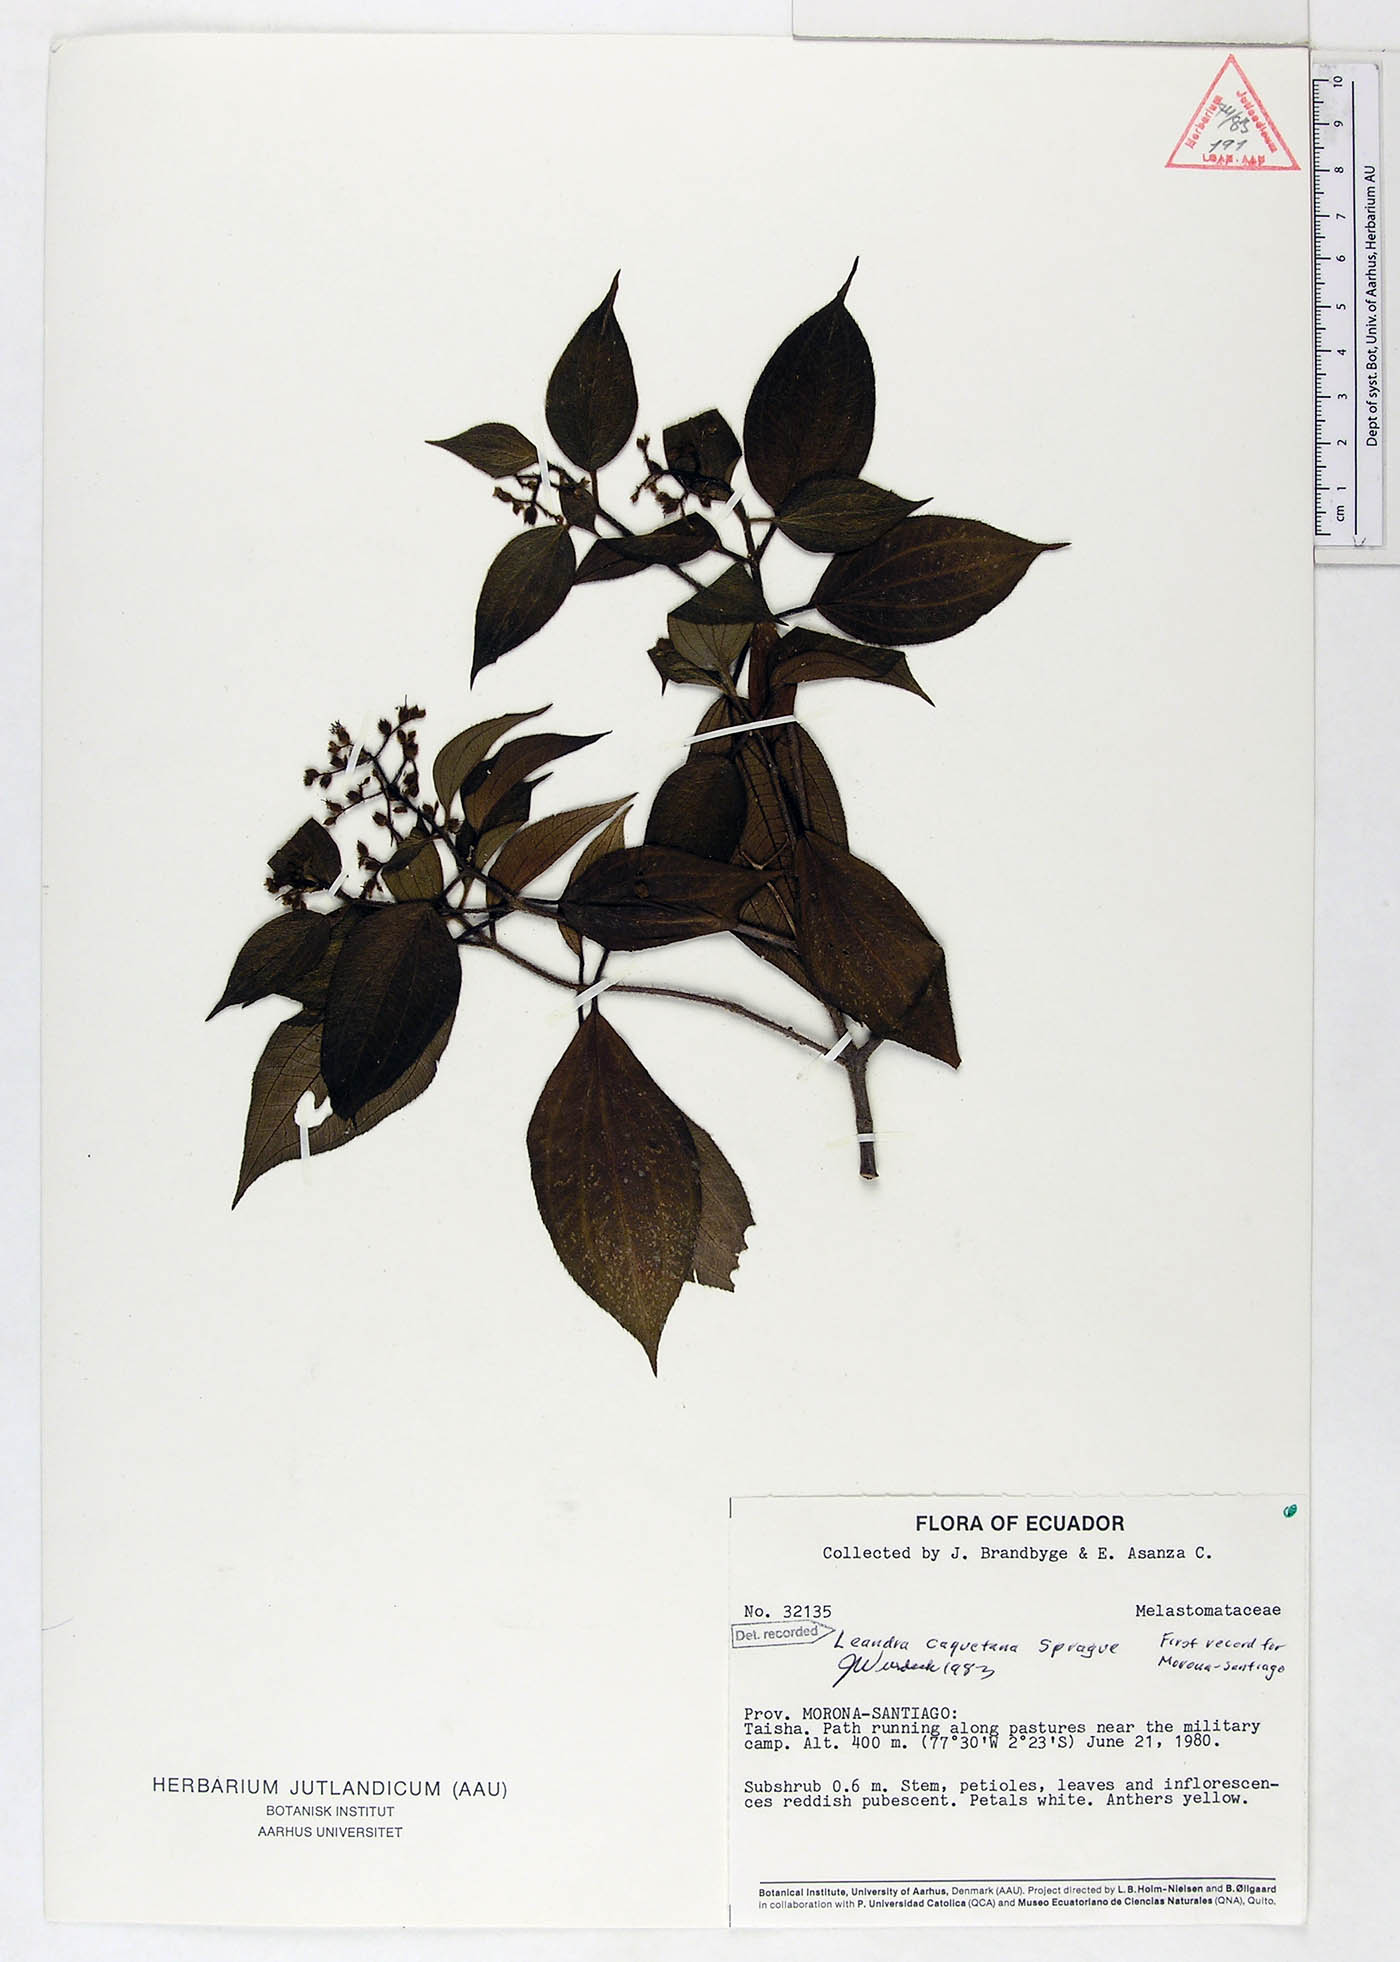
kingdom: Plantae
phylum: Tracheophyta
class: Magnoliopsida
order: Myrtales
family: Melastomataceae
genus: Miconia
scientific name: Miconia secuncaquetana
